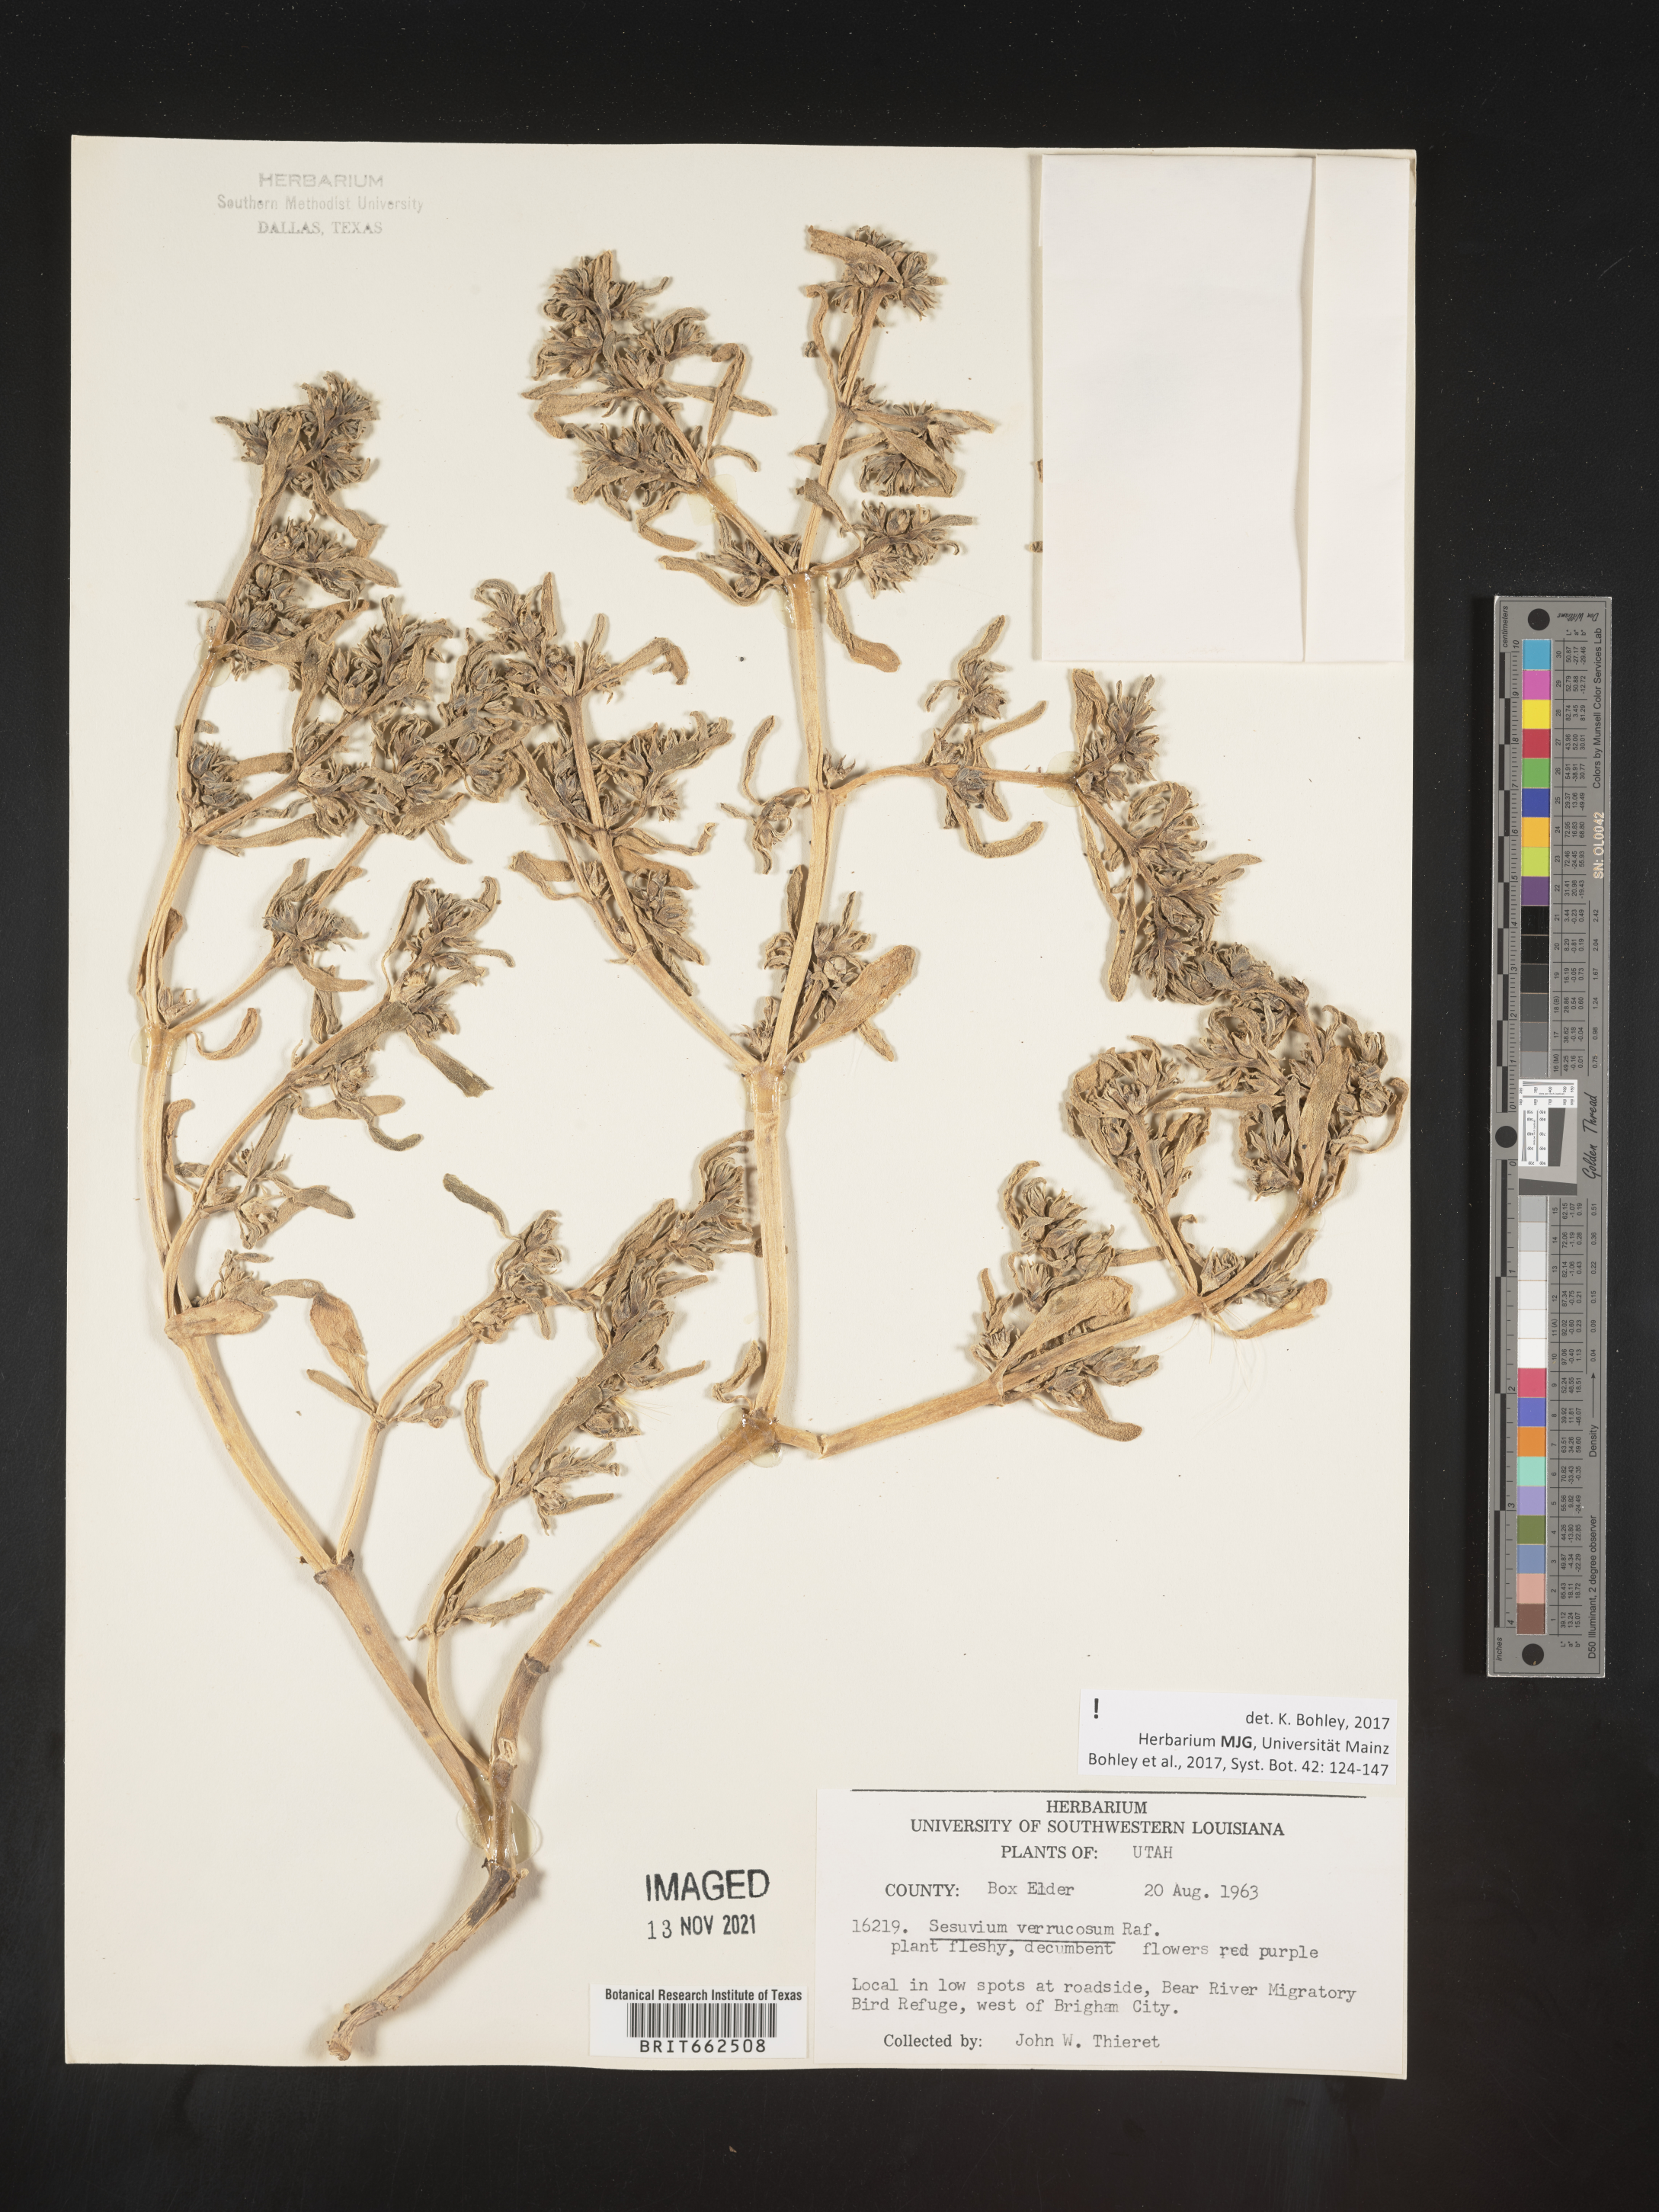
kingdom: Plantae
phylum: Tracheophyta
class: Magnoliopsida
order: Caryophyllales
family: Aizoaceae
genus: Sesuvium
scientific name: Sesuvium
